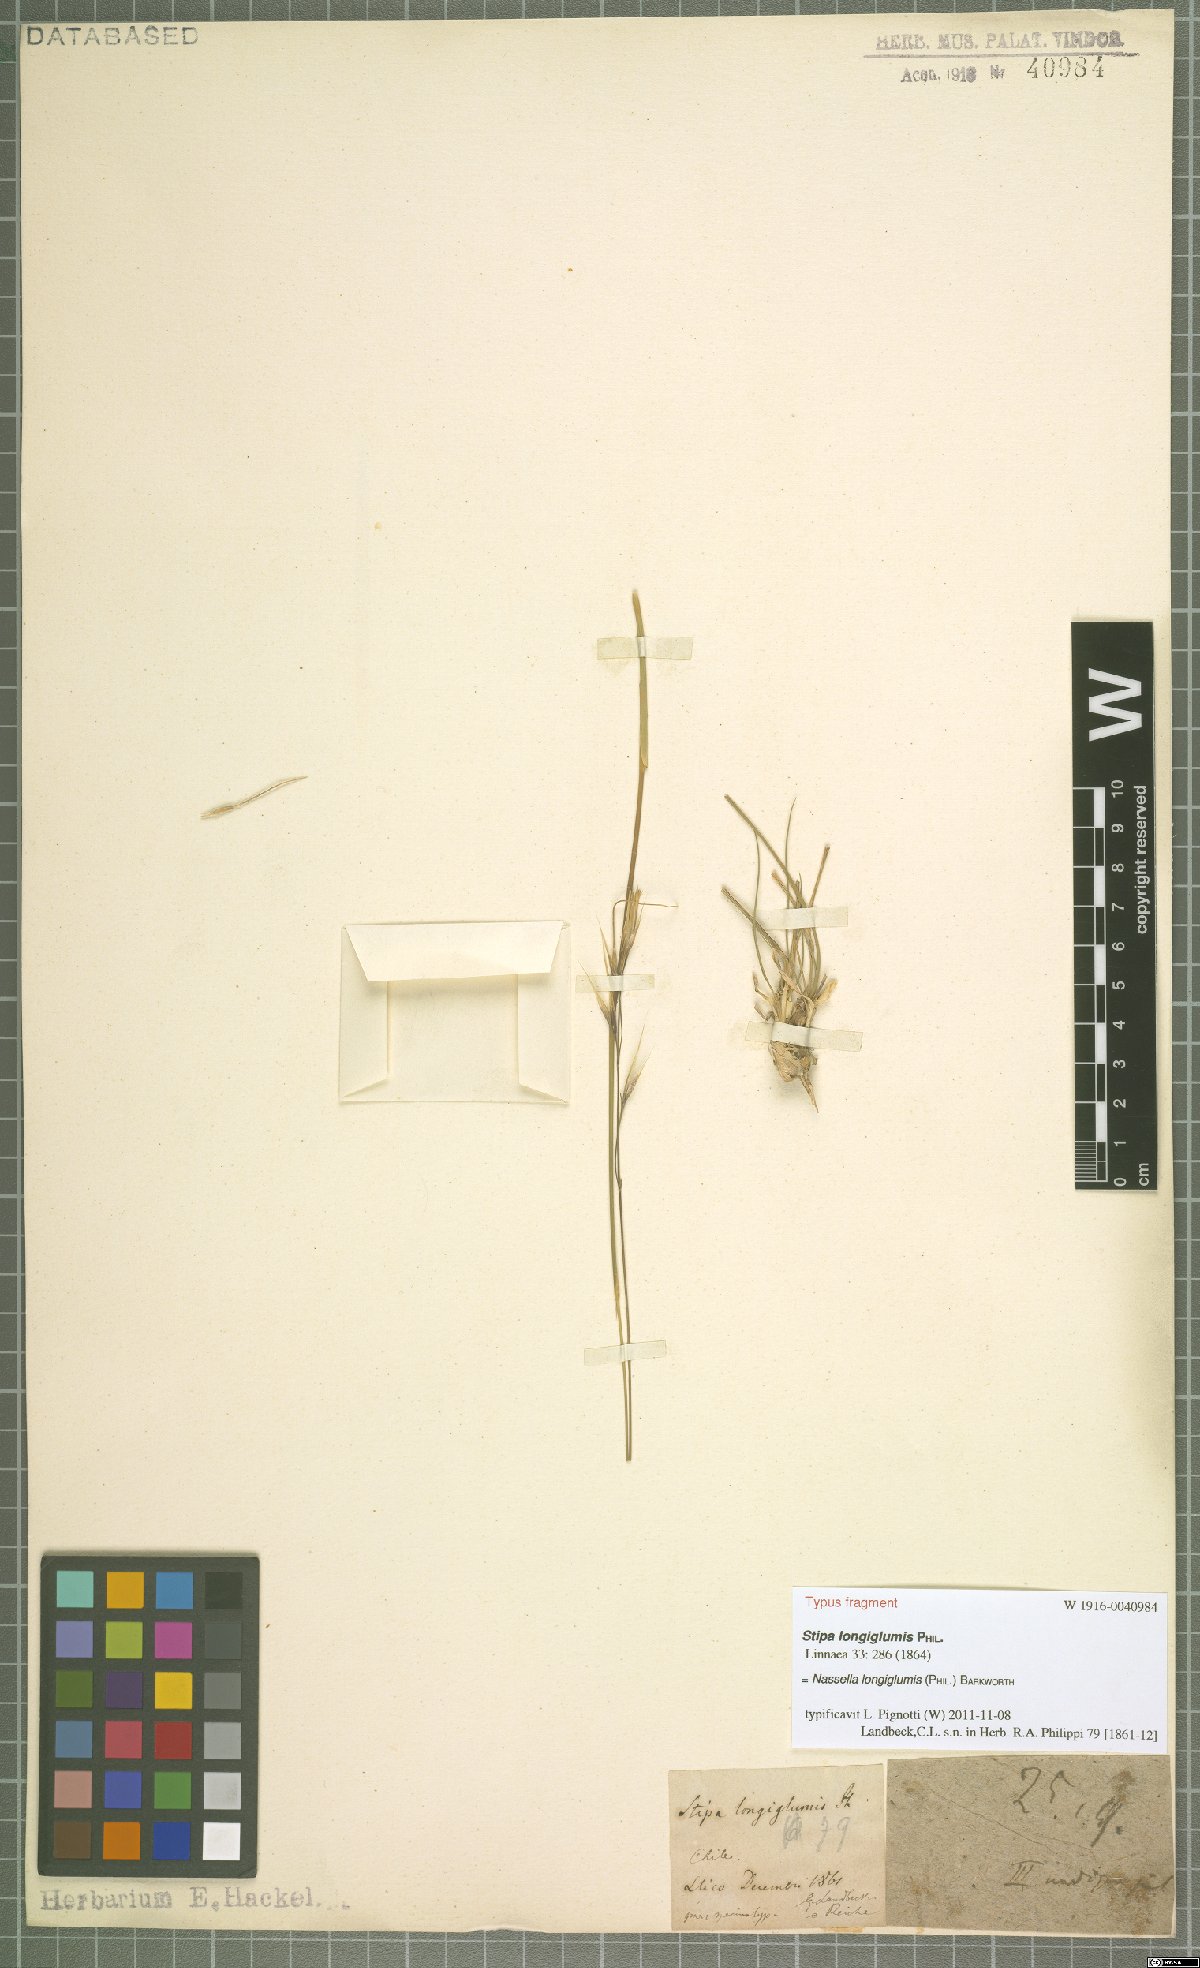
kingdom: Plantae
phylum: Tracheophyta
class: Liliopsida
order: Poales
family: Poaceae
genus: Nassella
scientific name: Nassella longiglumis
